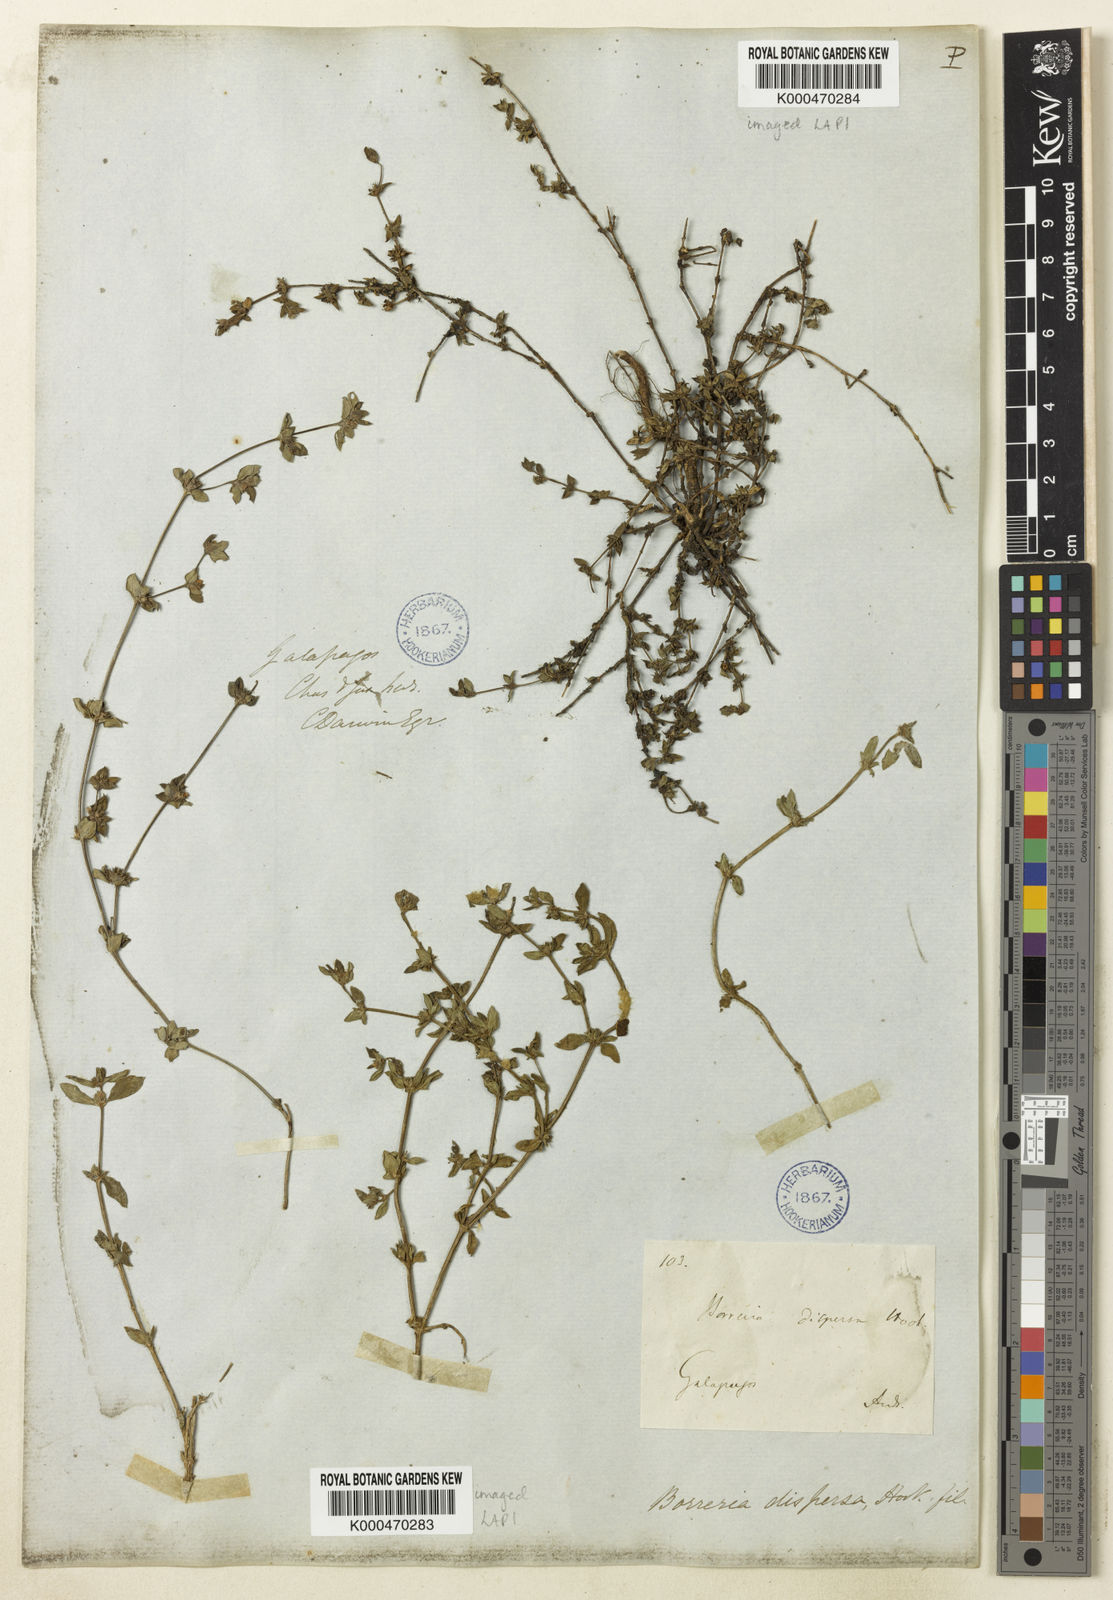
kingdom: Plantae
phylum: Tracheophyta
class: Magnoliopsida
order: Gentianales
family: Rubiaceae
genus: Spermacoce
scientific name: Spermacoce dispersa
